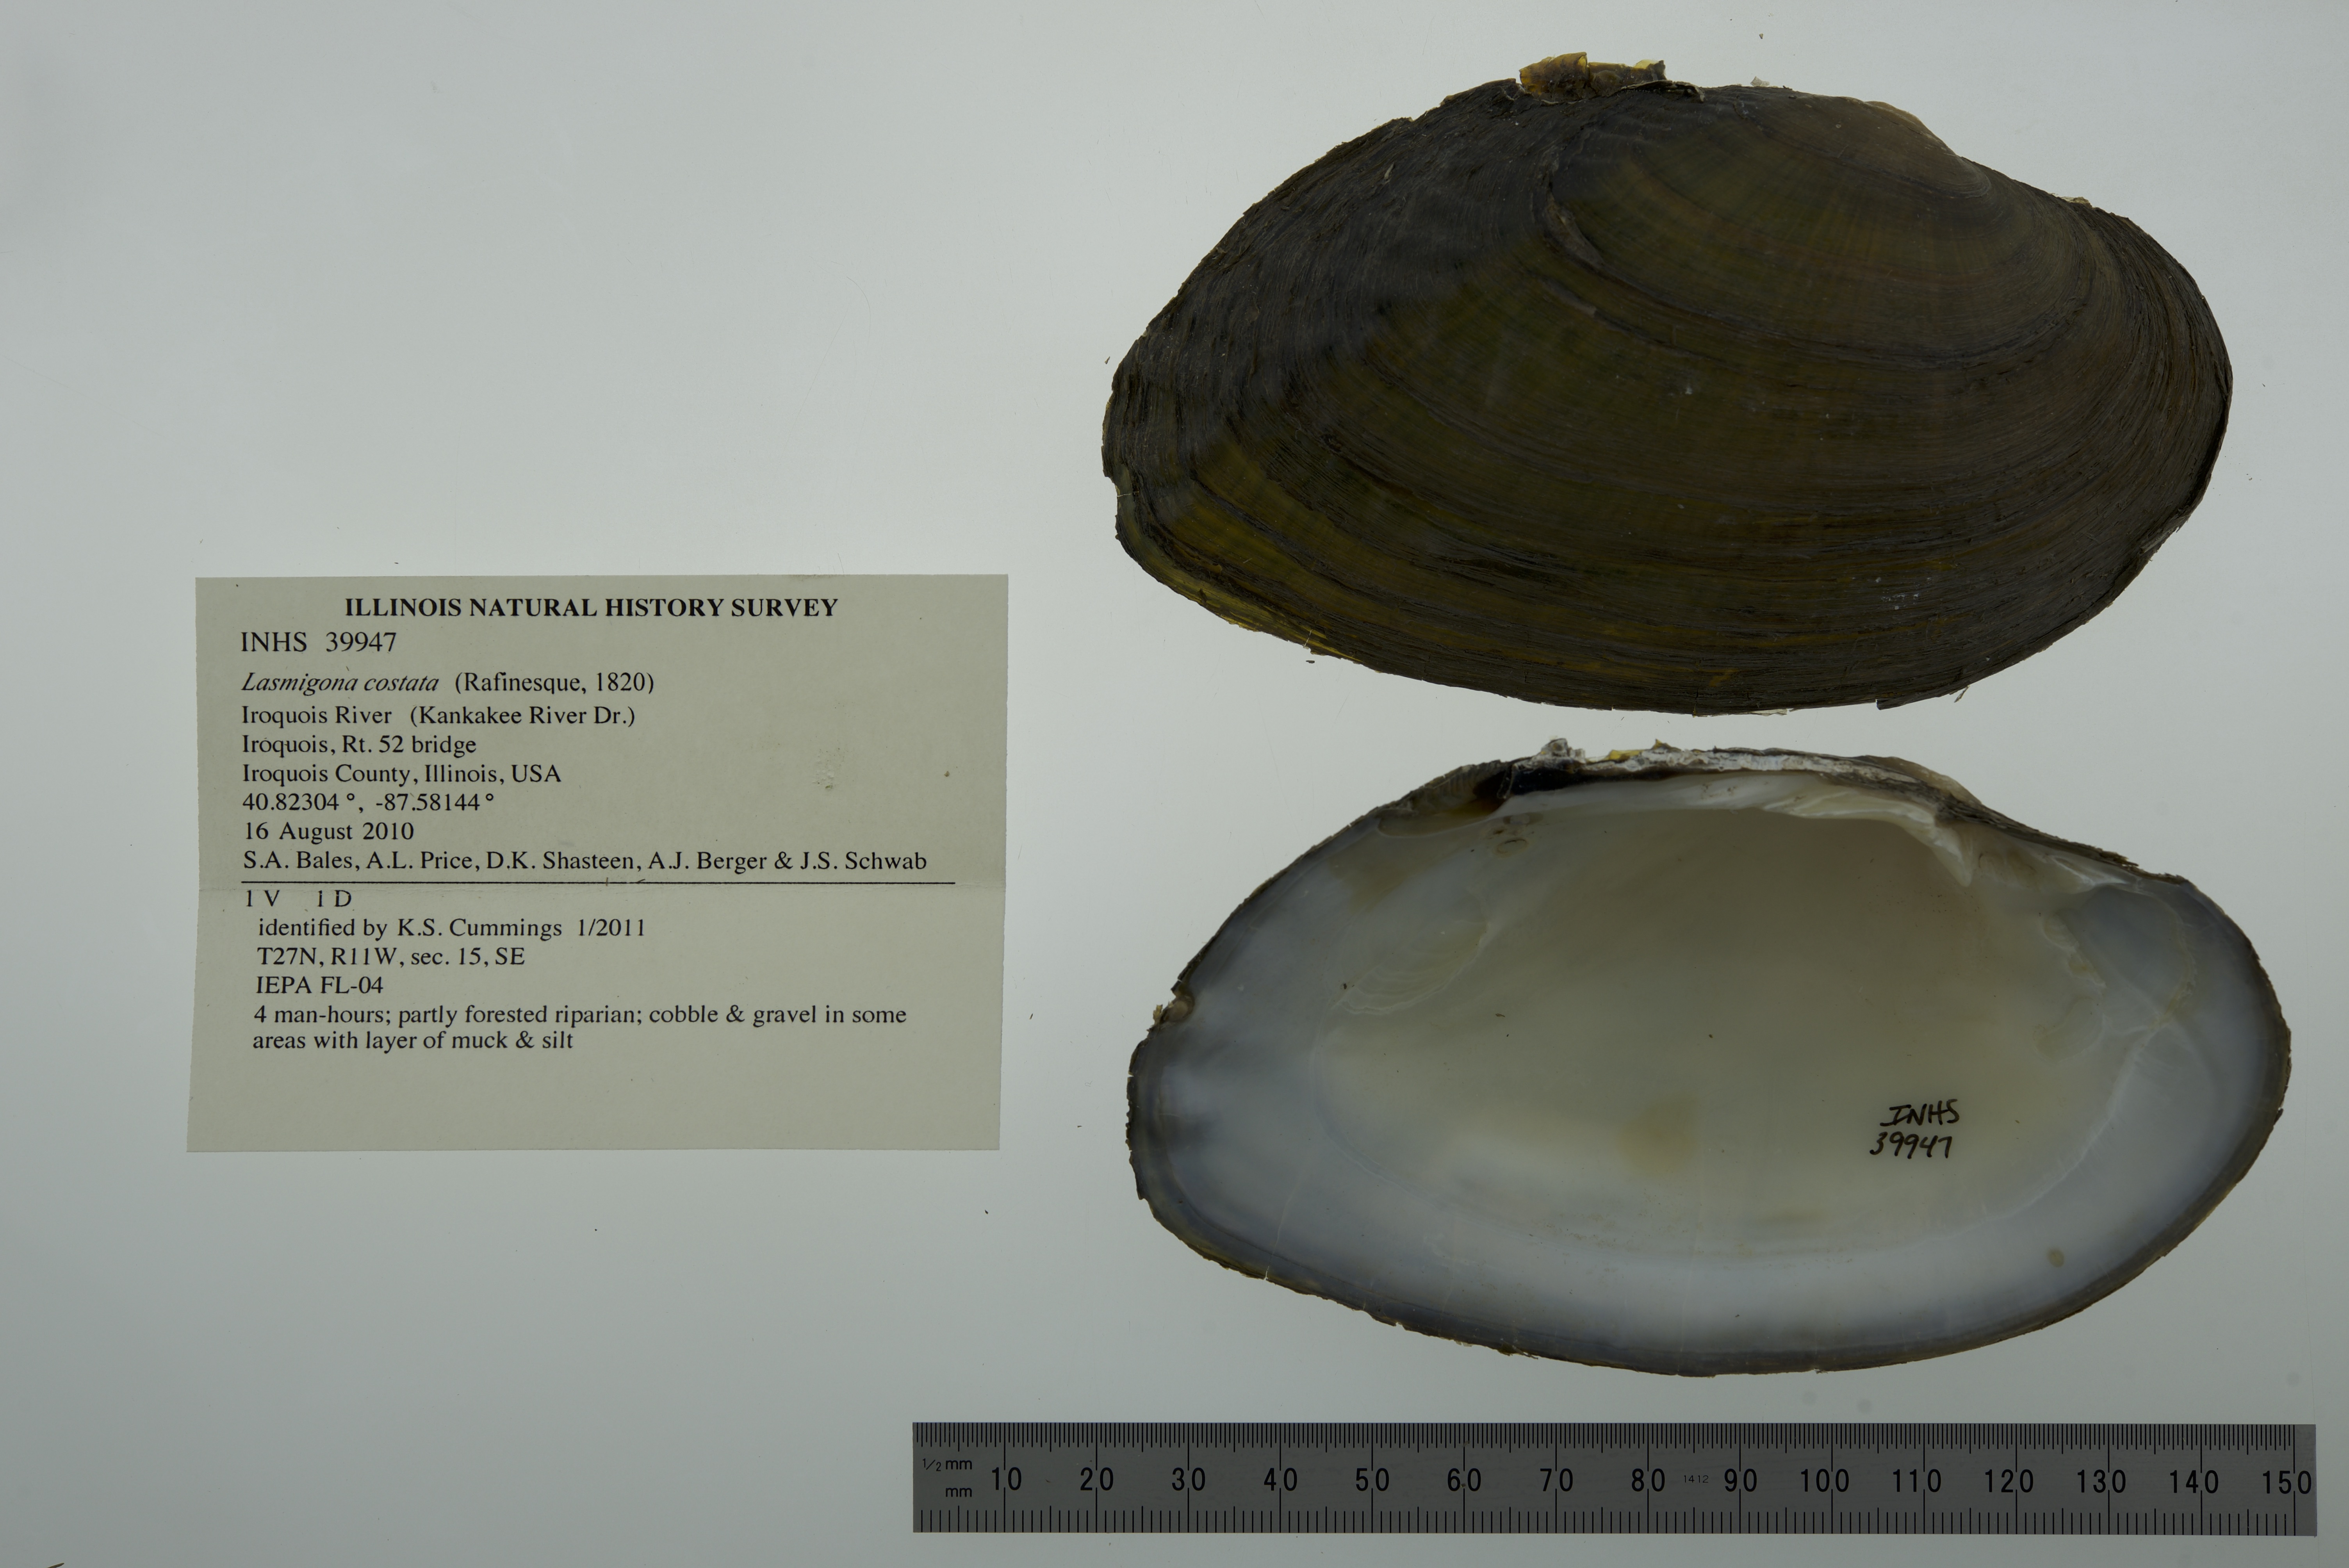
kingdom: Animalia
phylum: Mollusca
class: Bivalvia
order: Unionida
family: Unionidae
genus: Lasmigona
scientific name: Lasmigona costata
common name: Flutedshell
